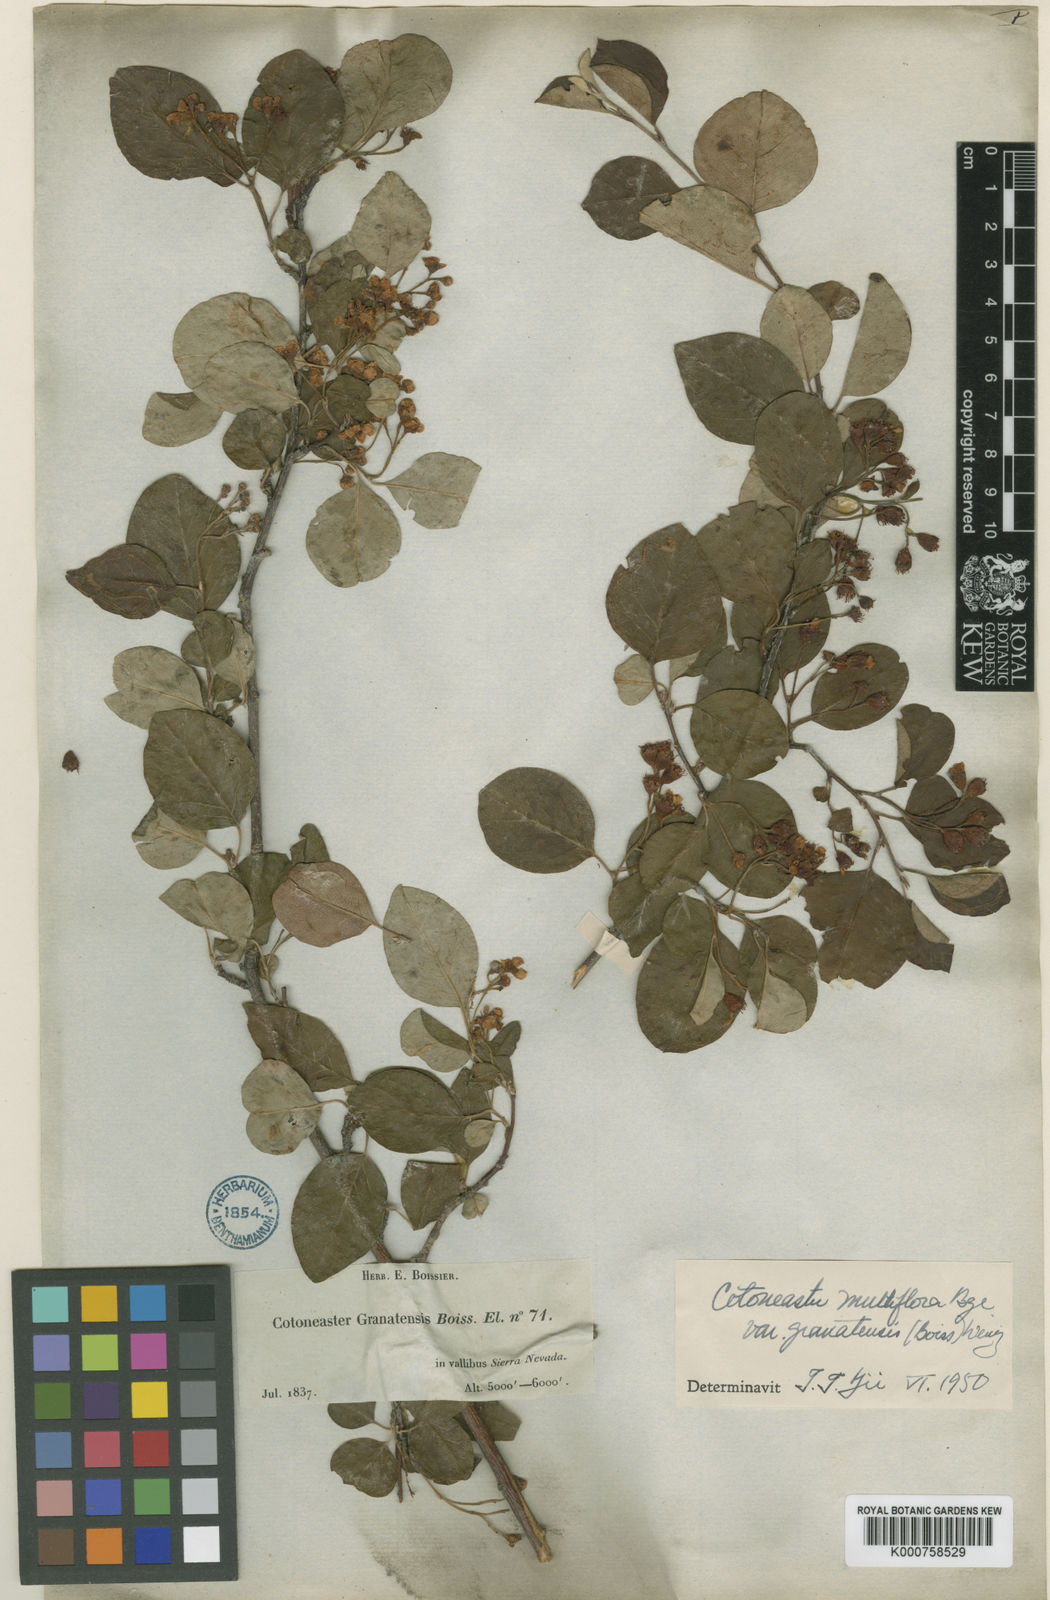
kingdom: Plantae
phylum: Tracheophyta
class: Magnoliopsida
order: Rosales
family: Rosaceae
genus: Cotoneaster
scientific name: Cotoneaster
